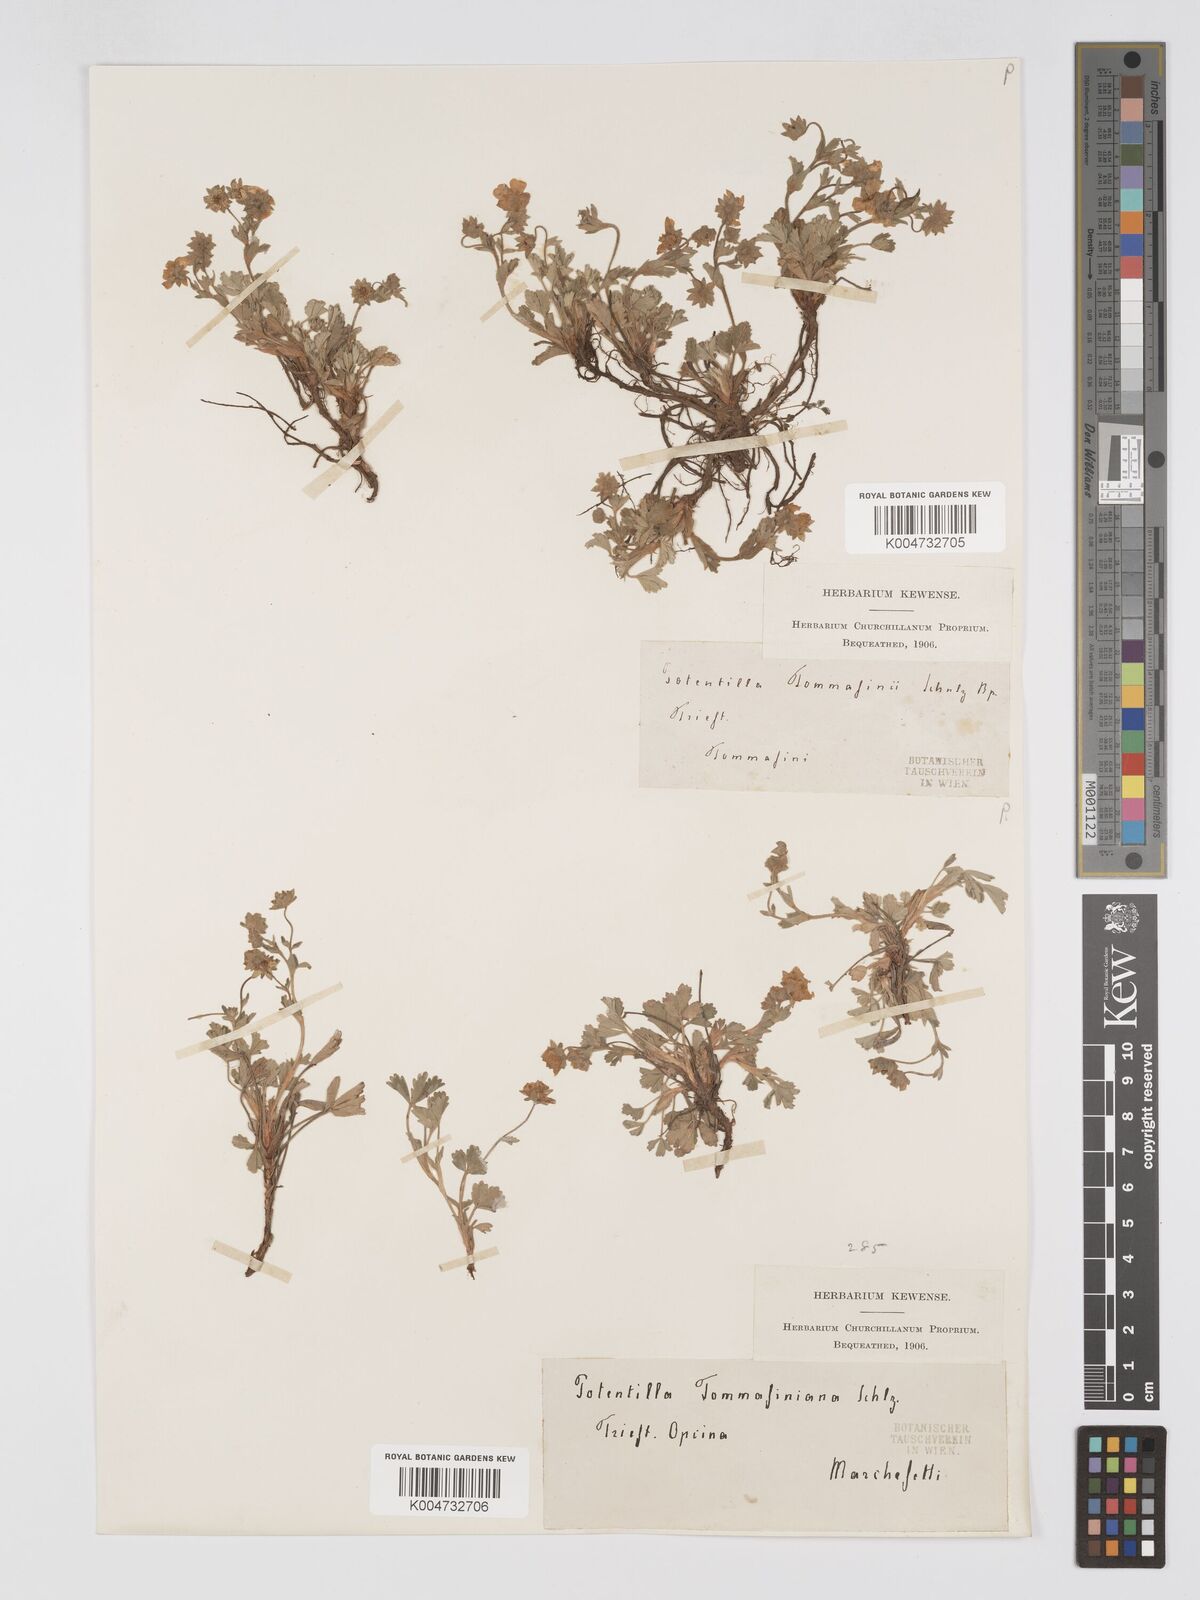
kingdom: Plantae
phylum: Tracheophyta
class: Magnoliopsida
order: Rosales
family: Rosaceae
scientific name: Rosaceae
